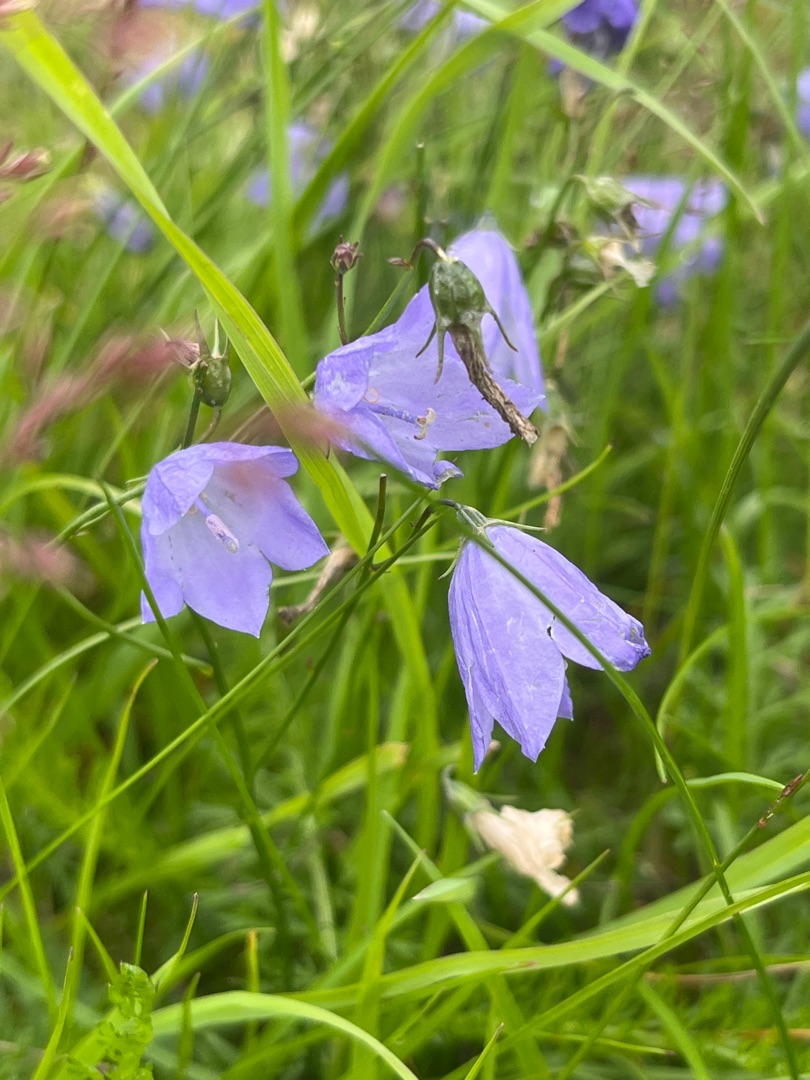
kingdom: Plantae
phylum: Tracheophyta
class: Magnoliopsida
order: Asterales
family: Campanulaceae
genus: Campanula
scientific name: Campanula rotundifolia
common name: Liden klokke
